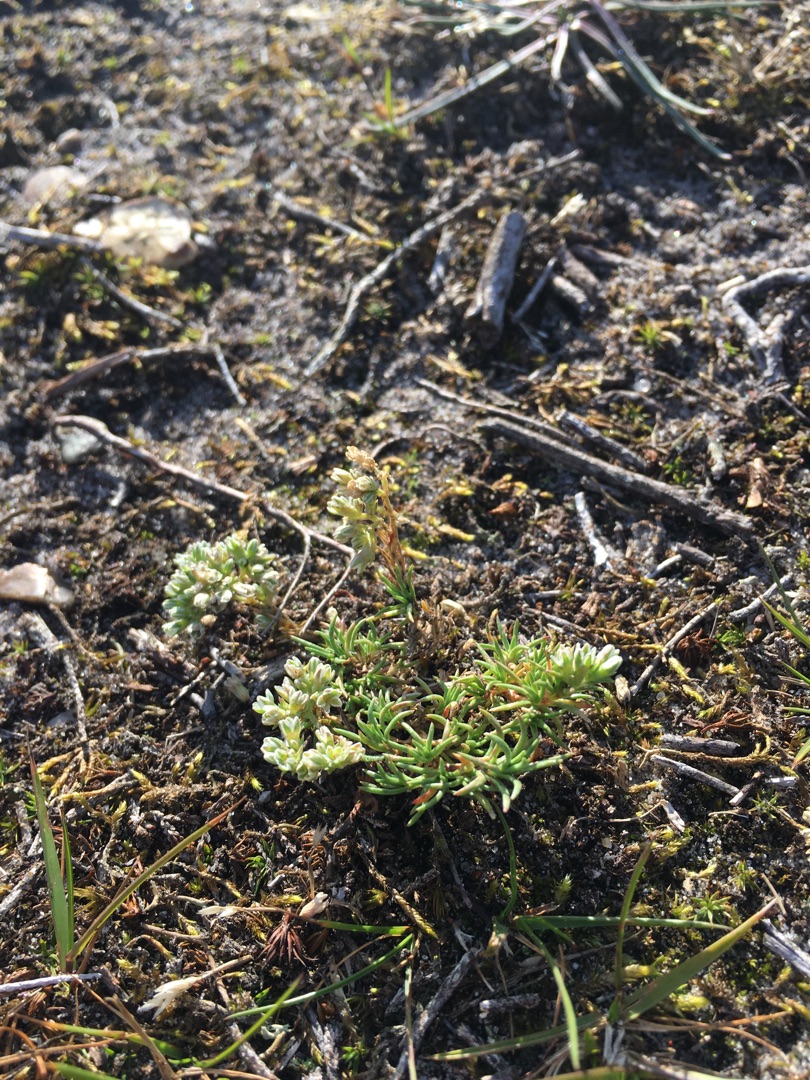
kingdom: Plantae
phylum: Tracheophyta
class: Magnoliopsida
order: Caryophyllales
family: Caryophyllaceae
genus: Scleranthus
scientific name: Scleranthus perennis
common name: Flerårig knavel
